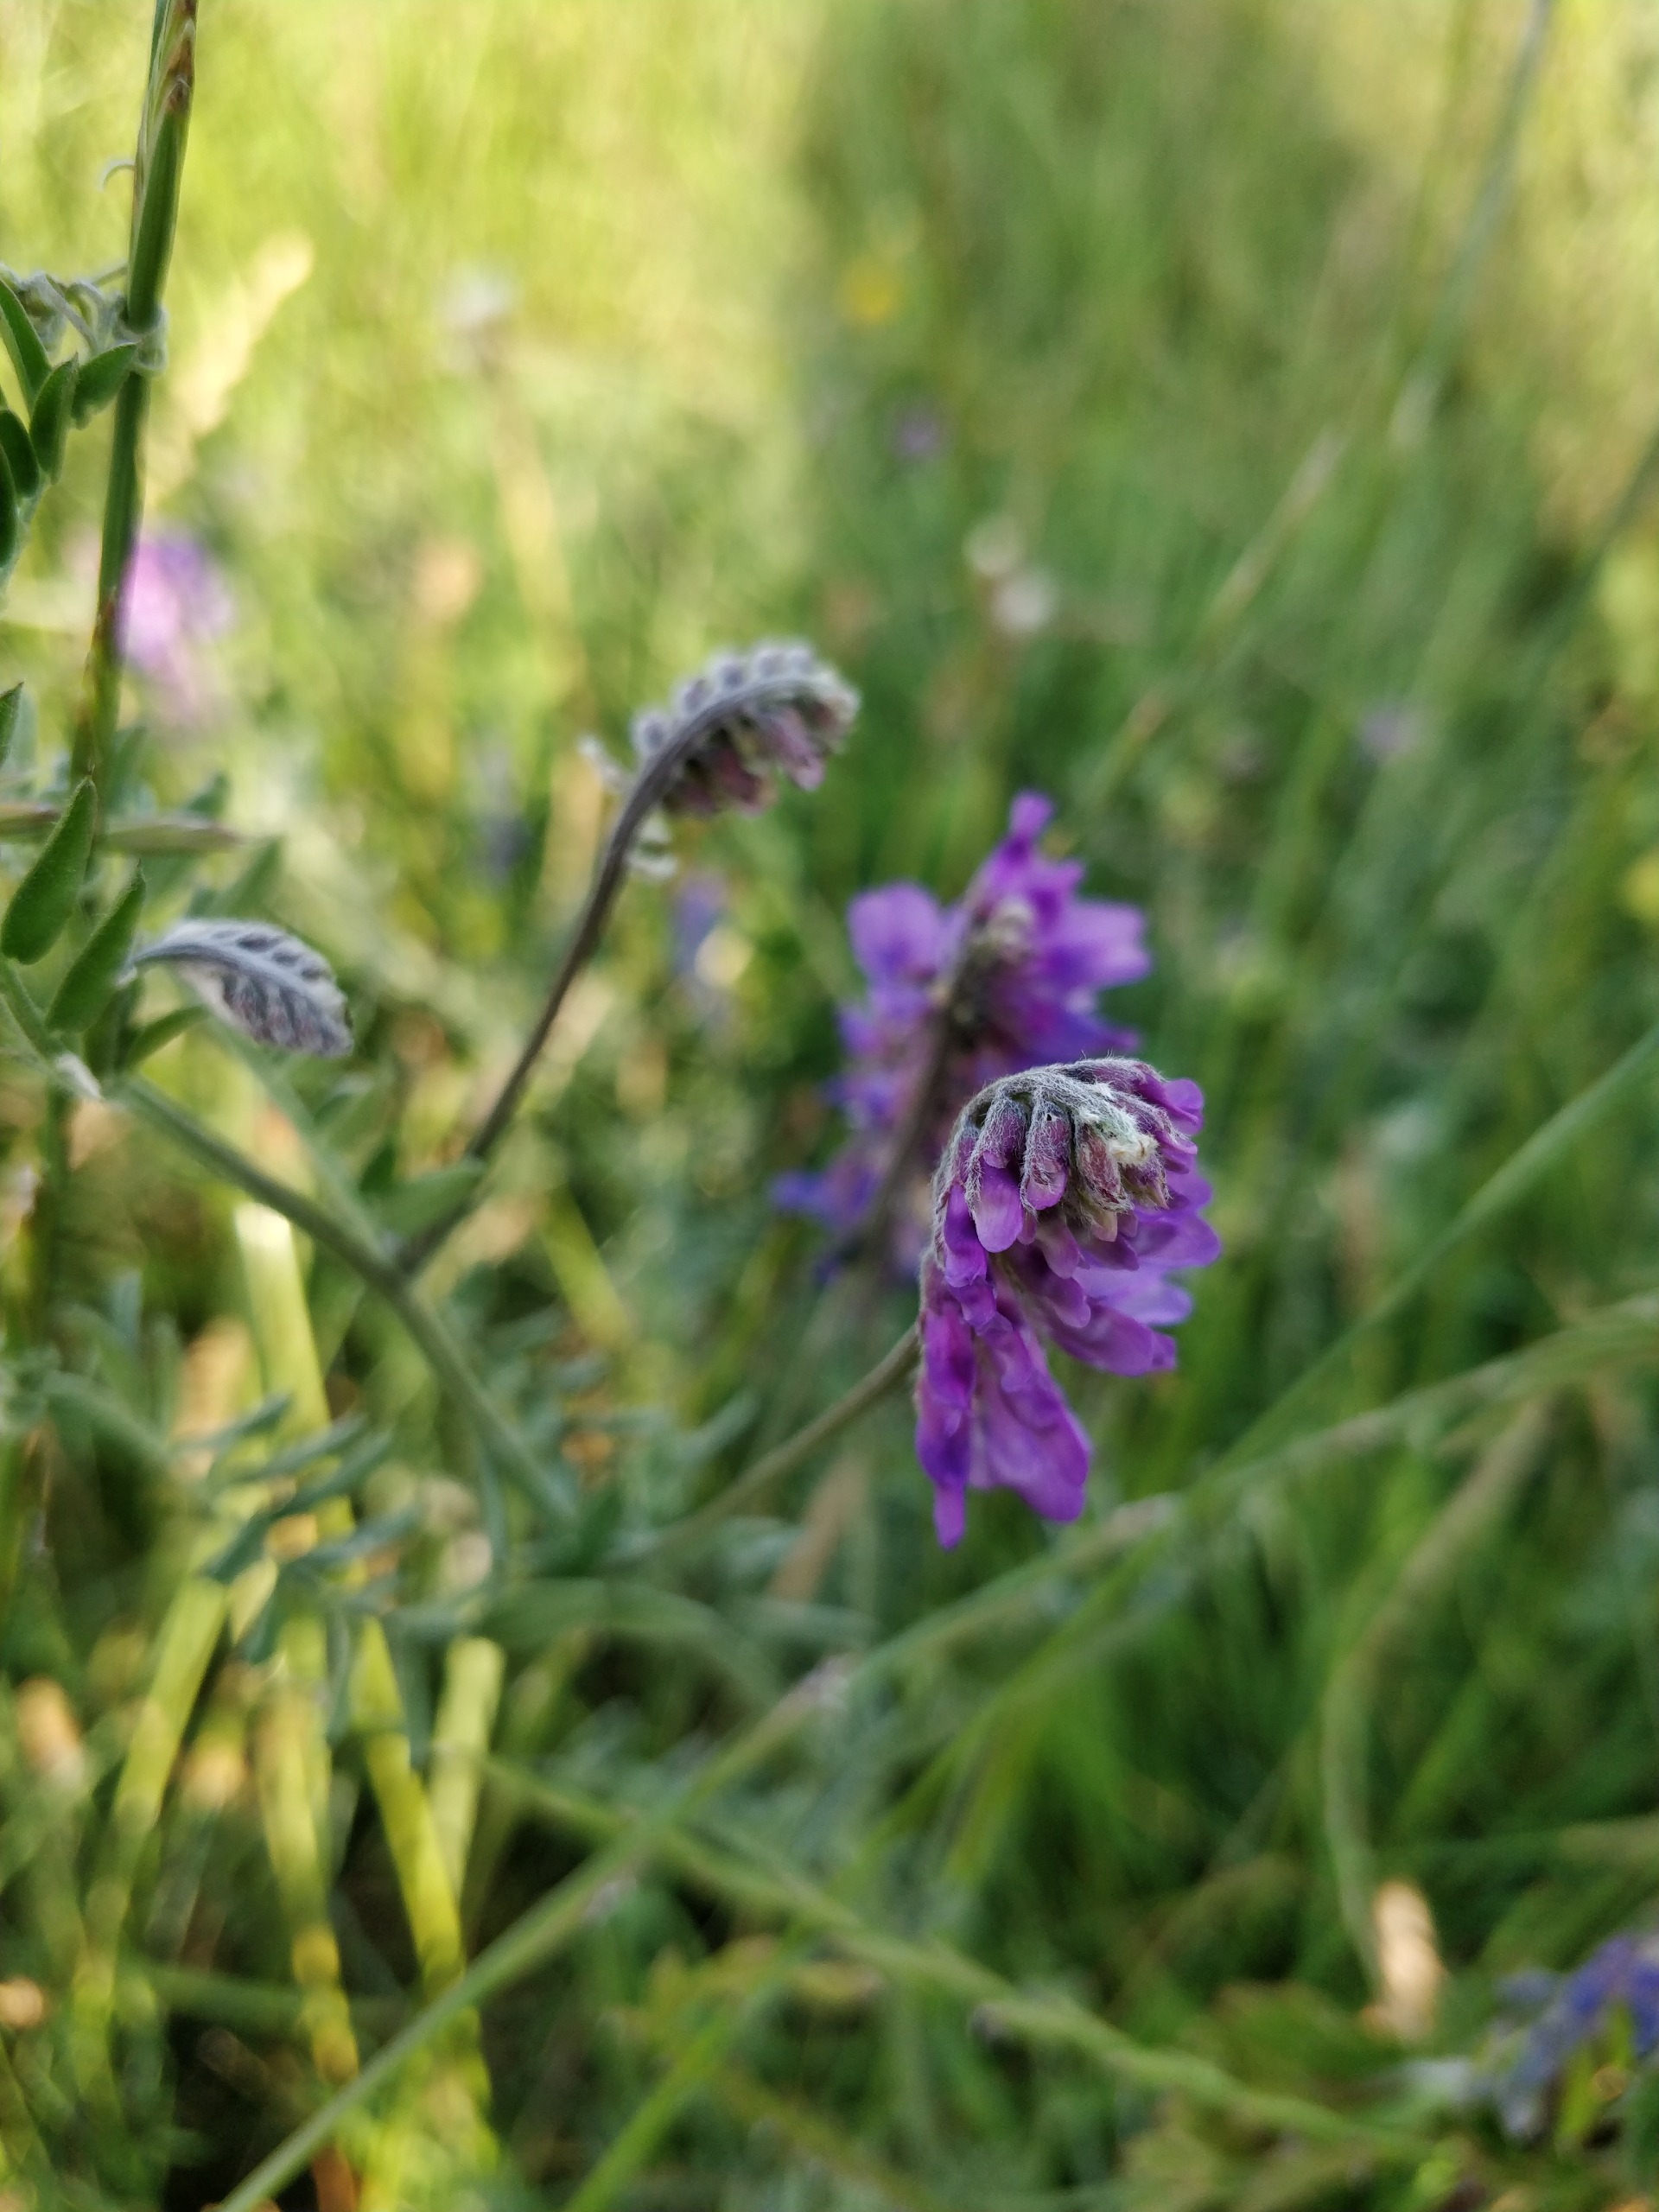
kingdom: Plantae
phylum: Tracheophyta
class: Magnoliopsida
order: Fabales
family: Fabaceae
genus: Vicia
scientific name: Vicia cracca
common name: Muse-vikke
